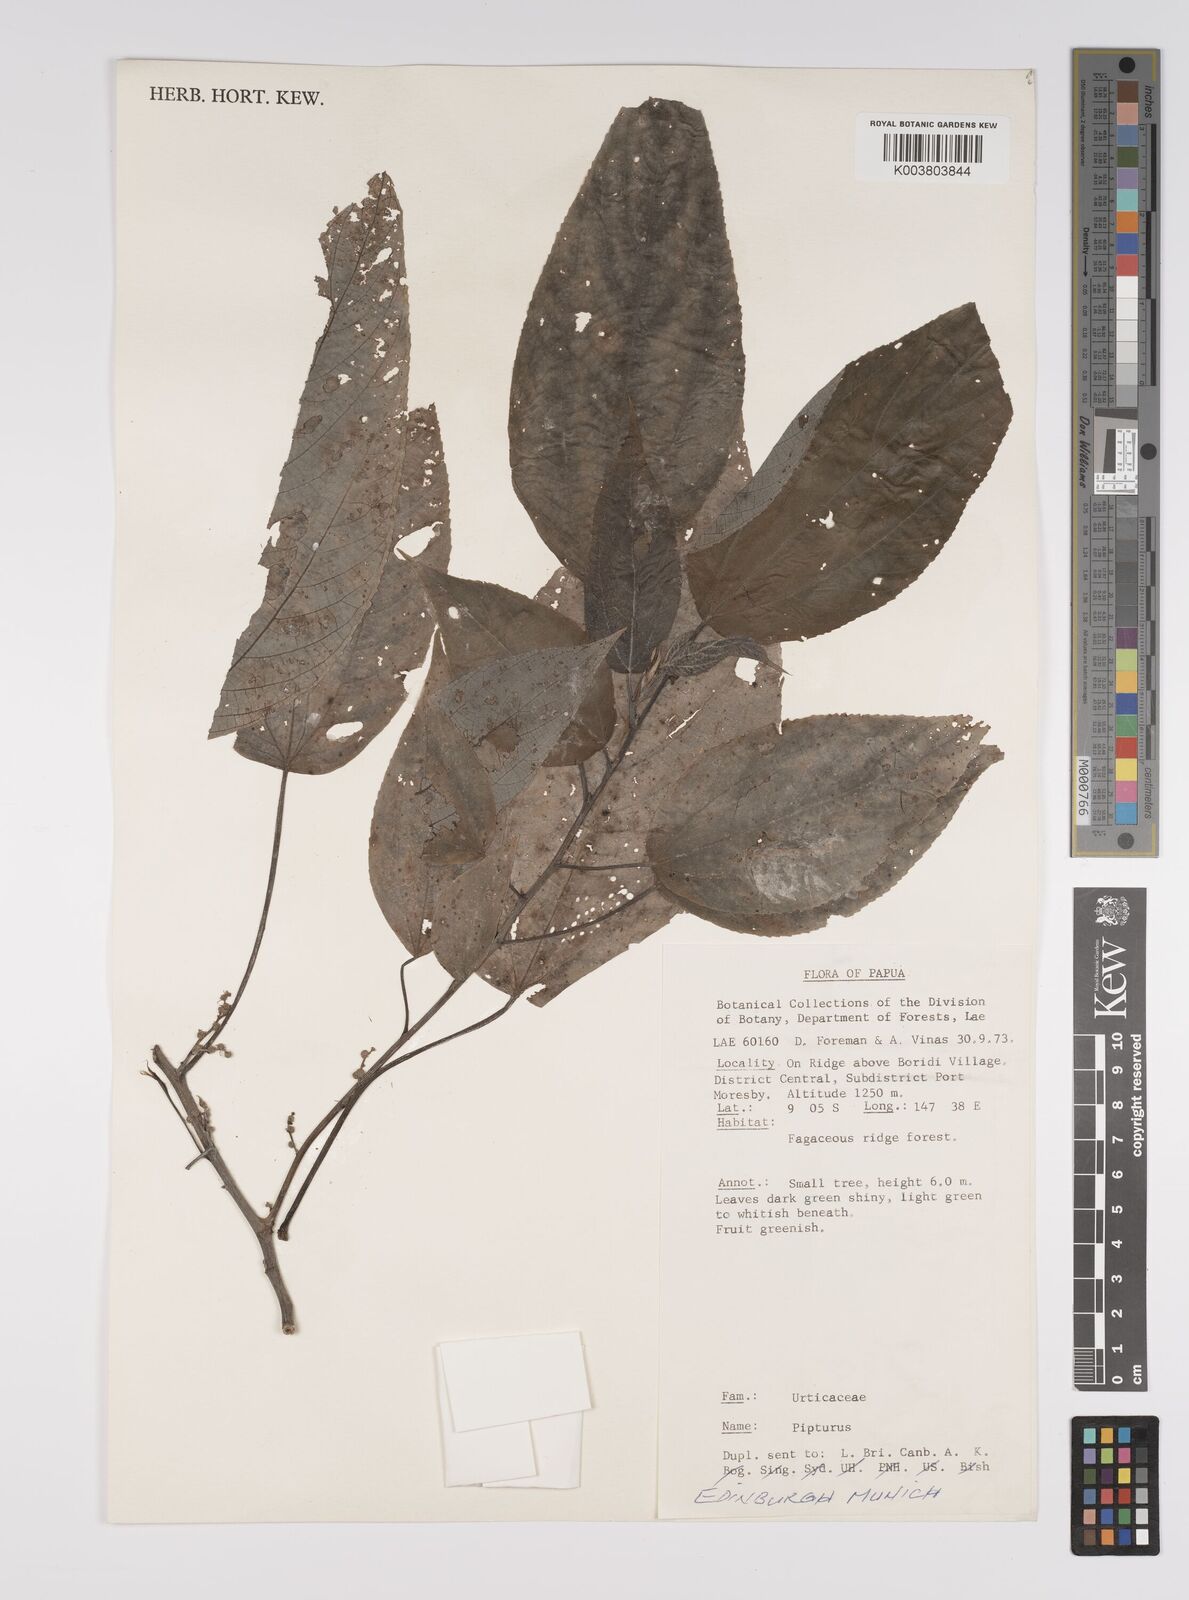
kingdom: Plantae
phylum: Tracheophyta
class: Magnoliopsida
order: Rosales
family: Urticaceae
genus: Pipturus
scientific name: Pipturus argenteus
